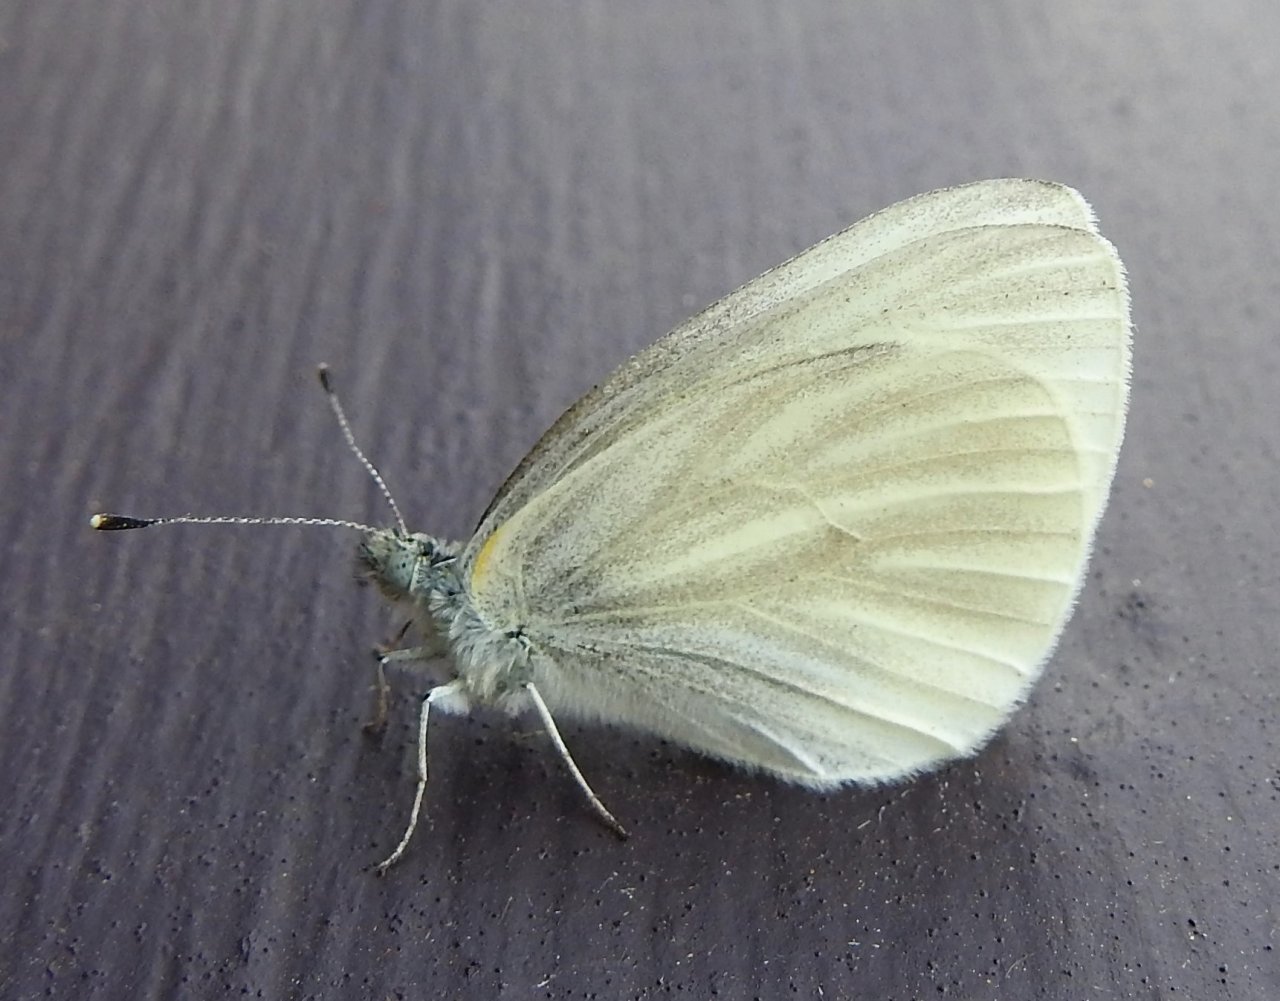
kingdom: Animalia
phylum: Arthropoda
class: Insecta
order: Lepidoptera
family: Pieridae
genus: Pieris
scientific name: Pieris virginiensis
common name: West Virginia White
